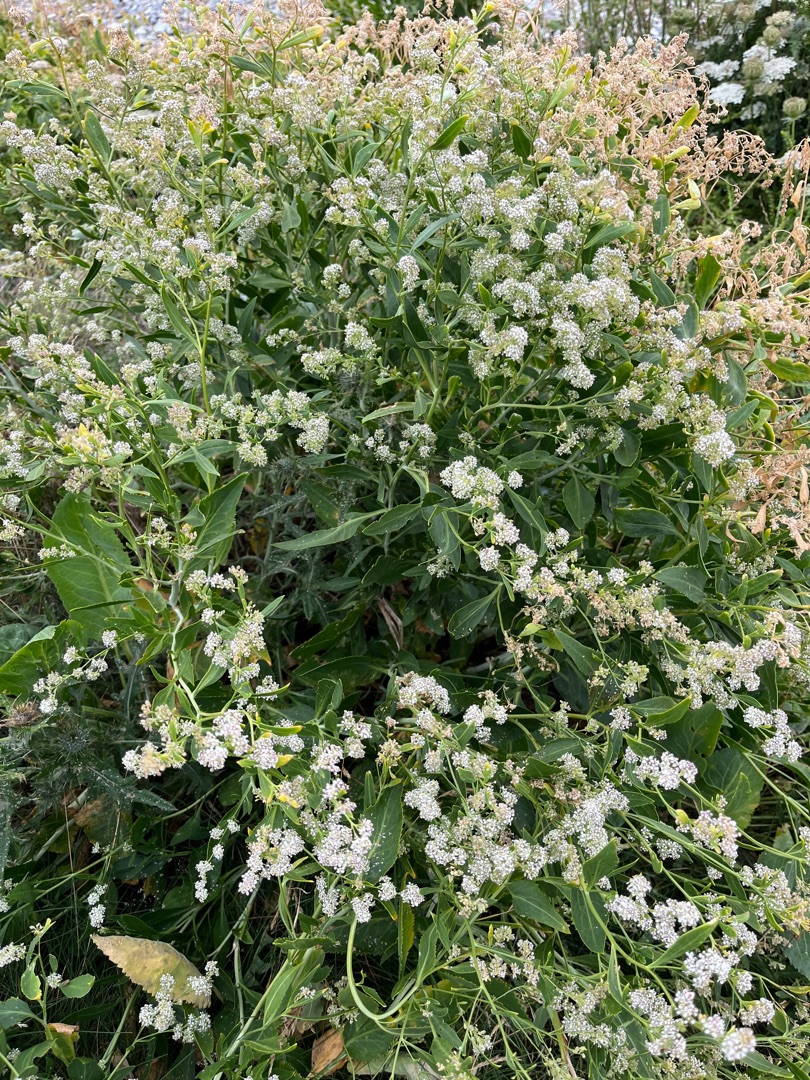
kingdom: Plantae
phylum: Tracheophyta
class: Magnoliopsida
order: Brassicales
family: Brassicaceae
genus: Lepidium
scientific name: Lepidium latifolium
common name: Strand-karse
